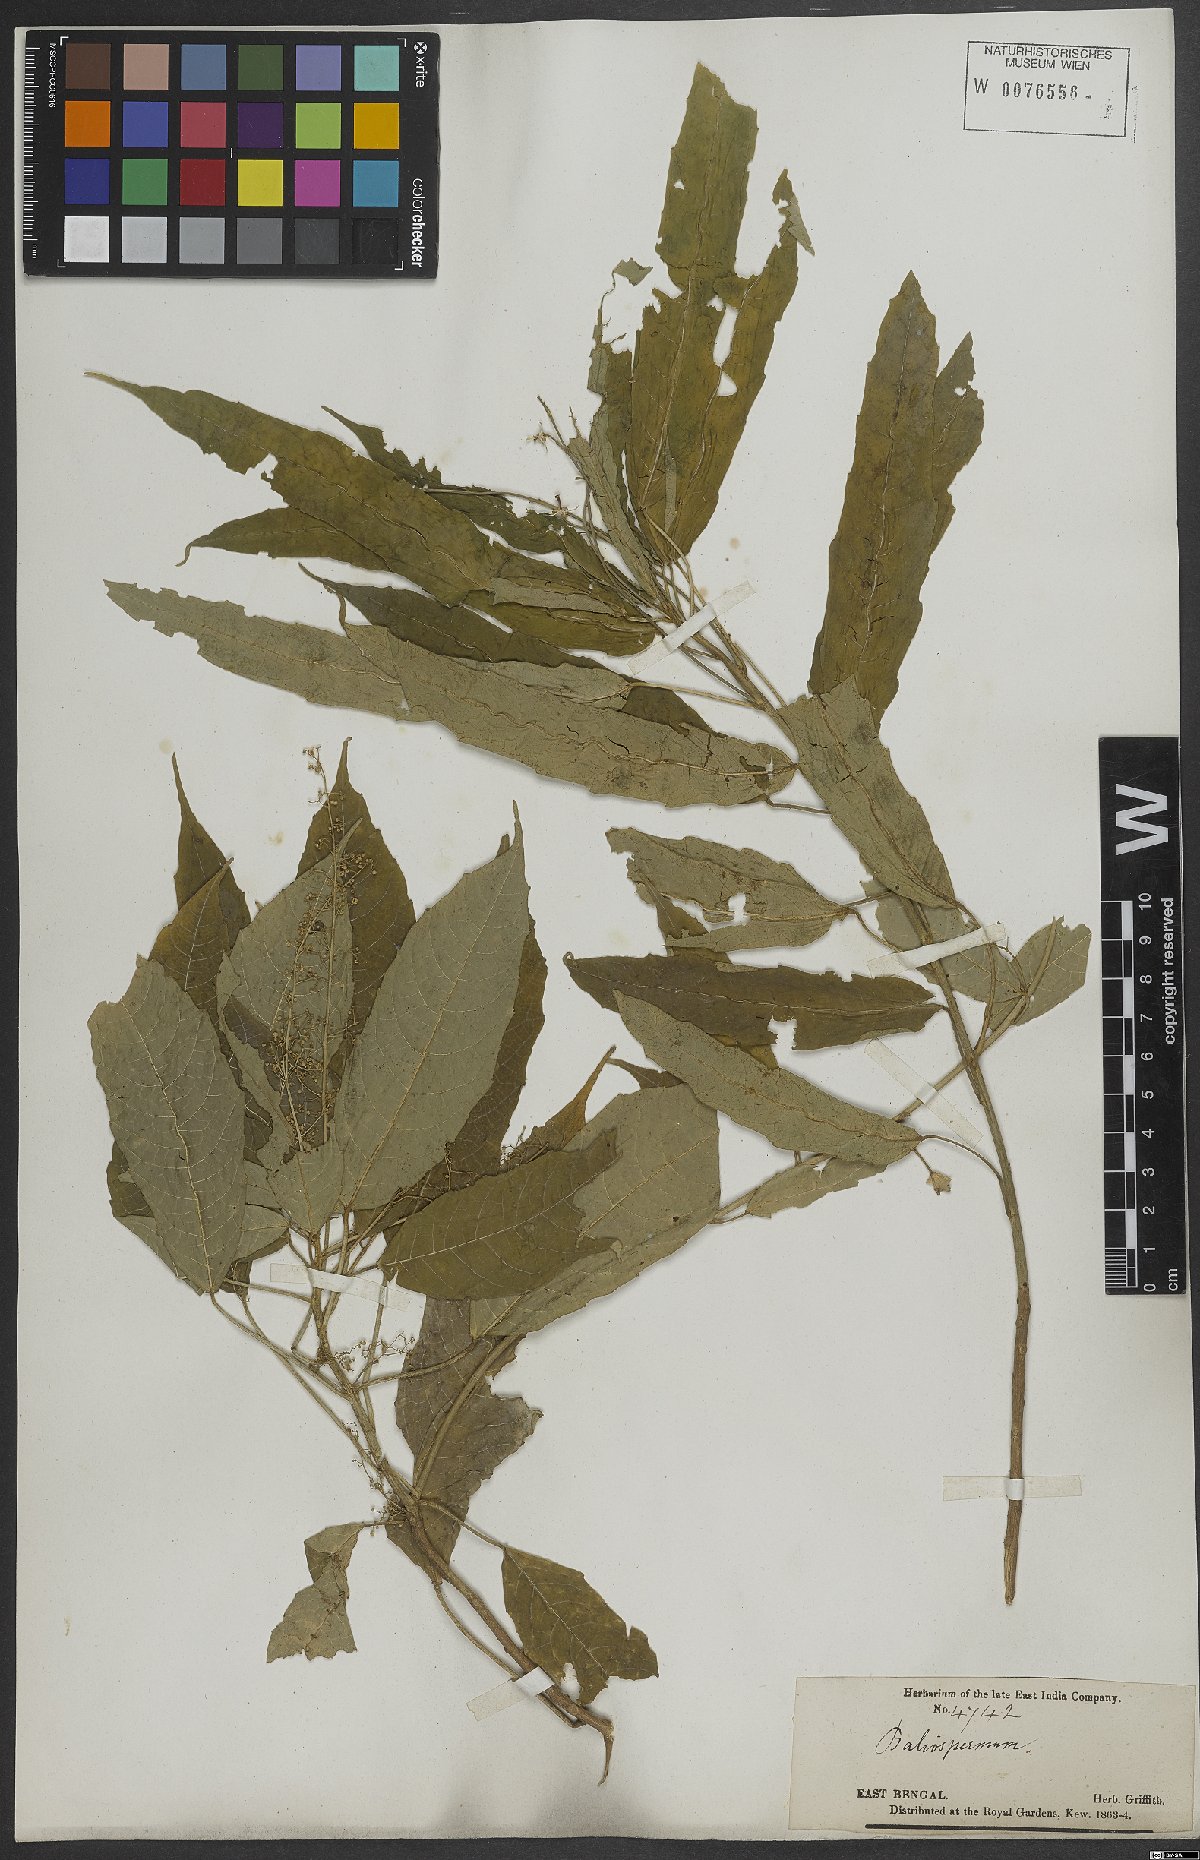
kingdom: Plantae
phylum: Tracheophyta
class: Magnoliopsida
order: Malpighiales
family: Euphorbiaceae
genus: Baliospermum
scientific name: Baliospermum calycinum
